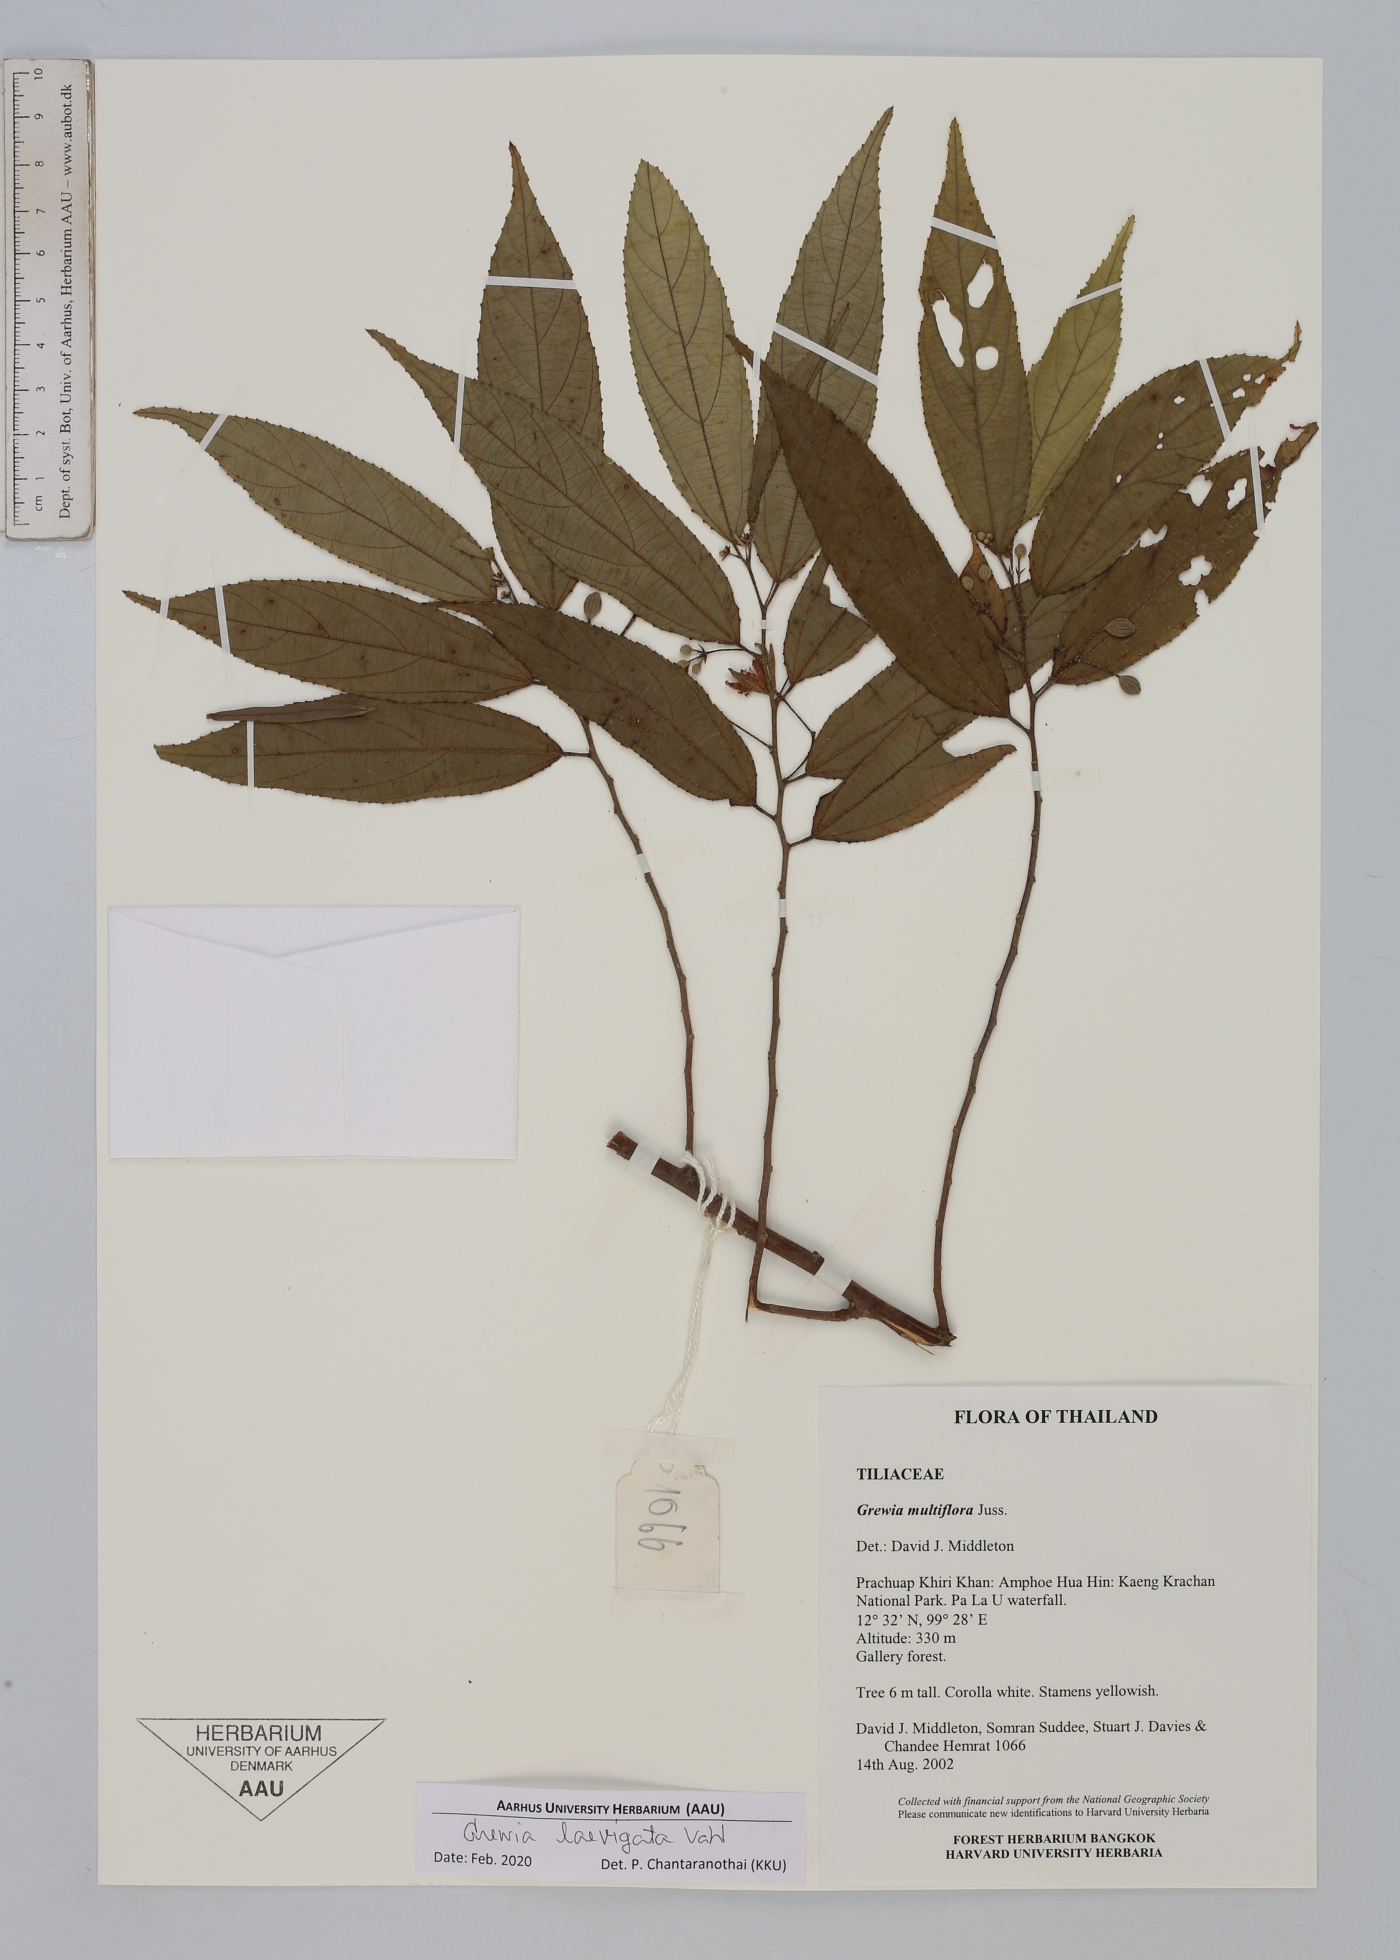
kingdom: Plantae
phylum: Tracheophyta
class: Magnoliopsida
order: Malvales
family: Malvaceae
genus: Grewia
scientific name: Grewia laevigata
